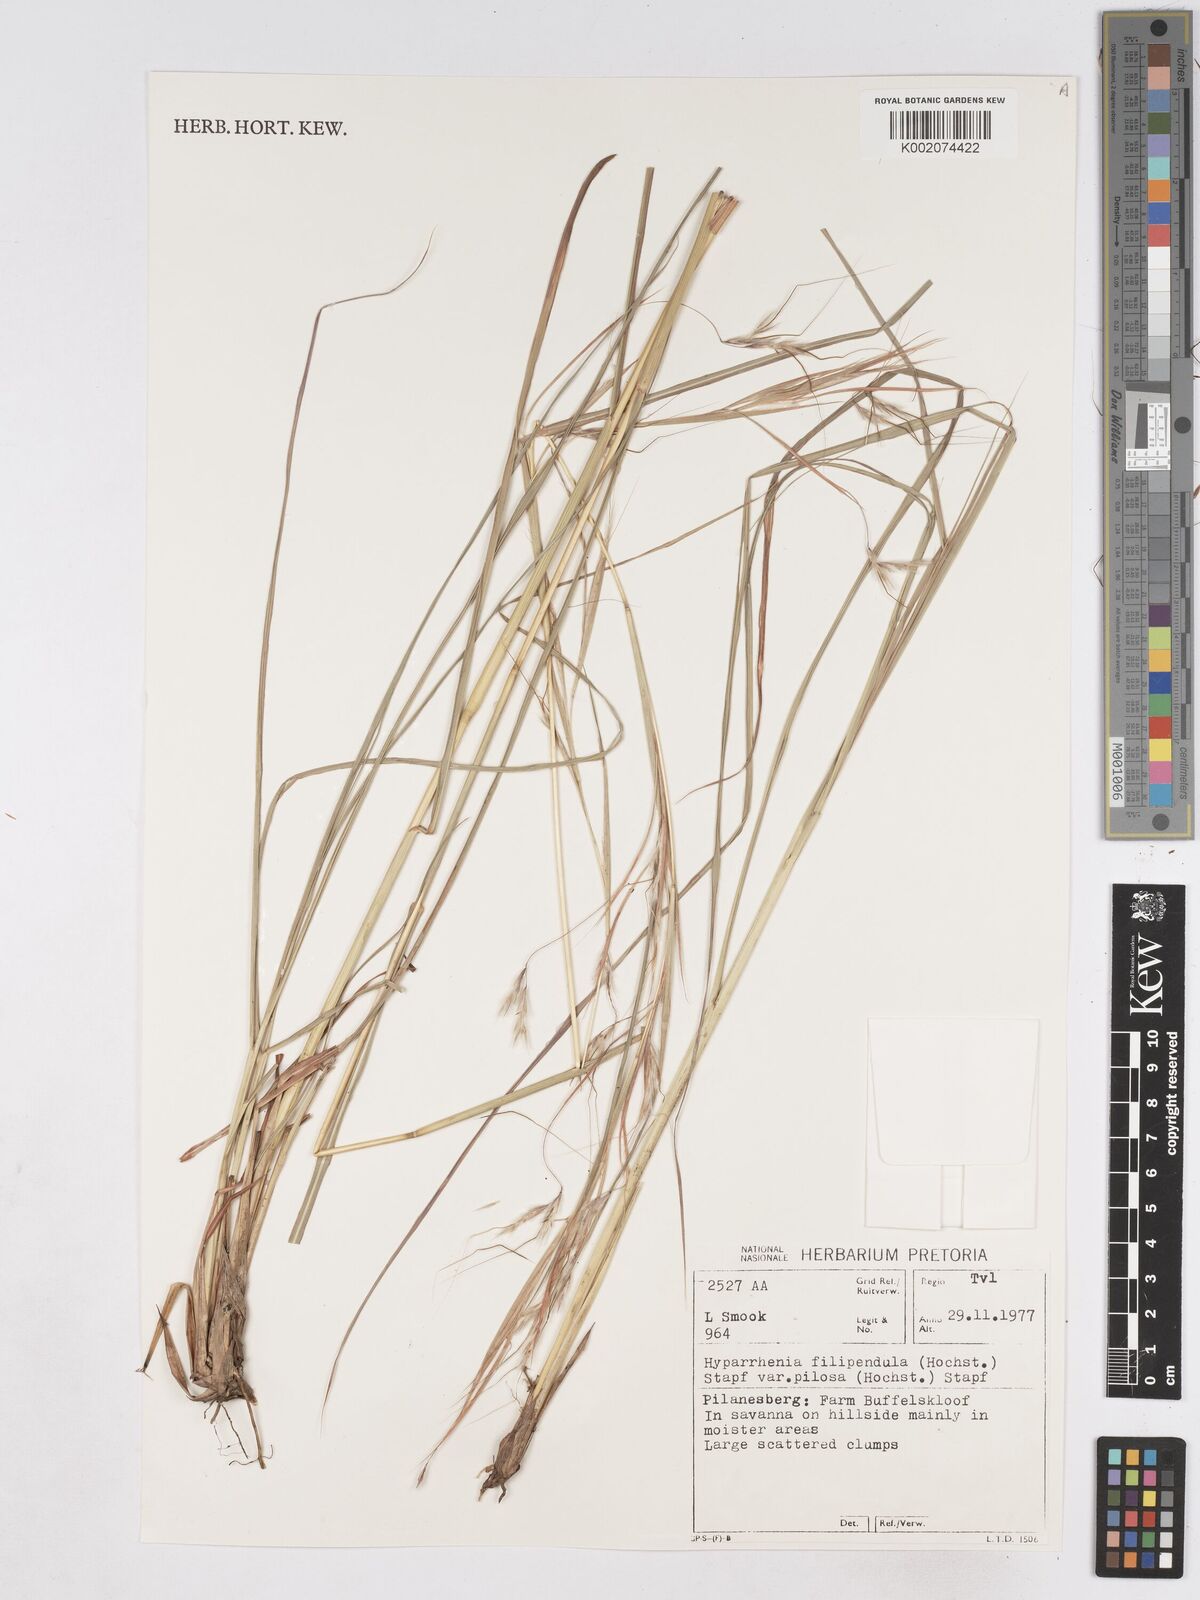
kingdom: Plantae
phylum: Tracheophyta
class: Liliopsida
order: Poales
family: Poaceae
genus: Hyparrhenia
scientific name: Hyparrhenia hirta
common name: Thatching grass
